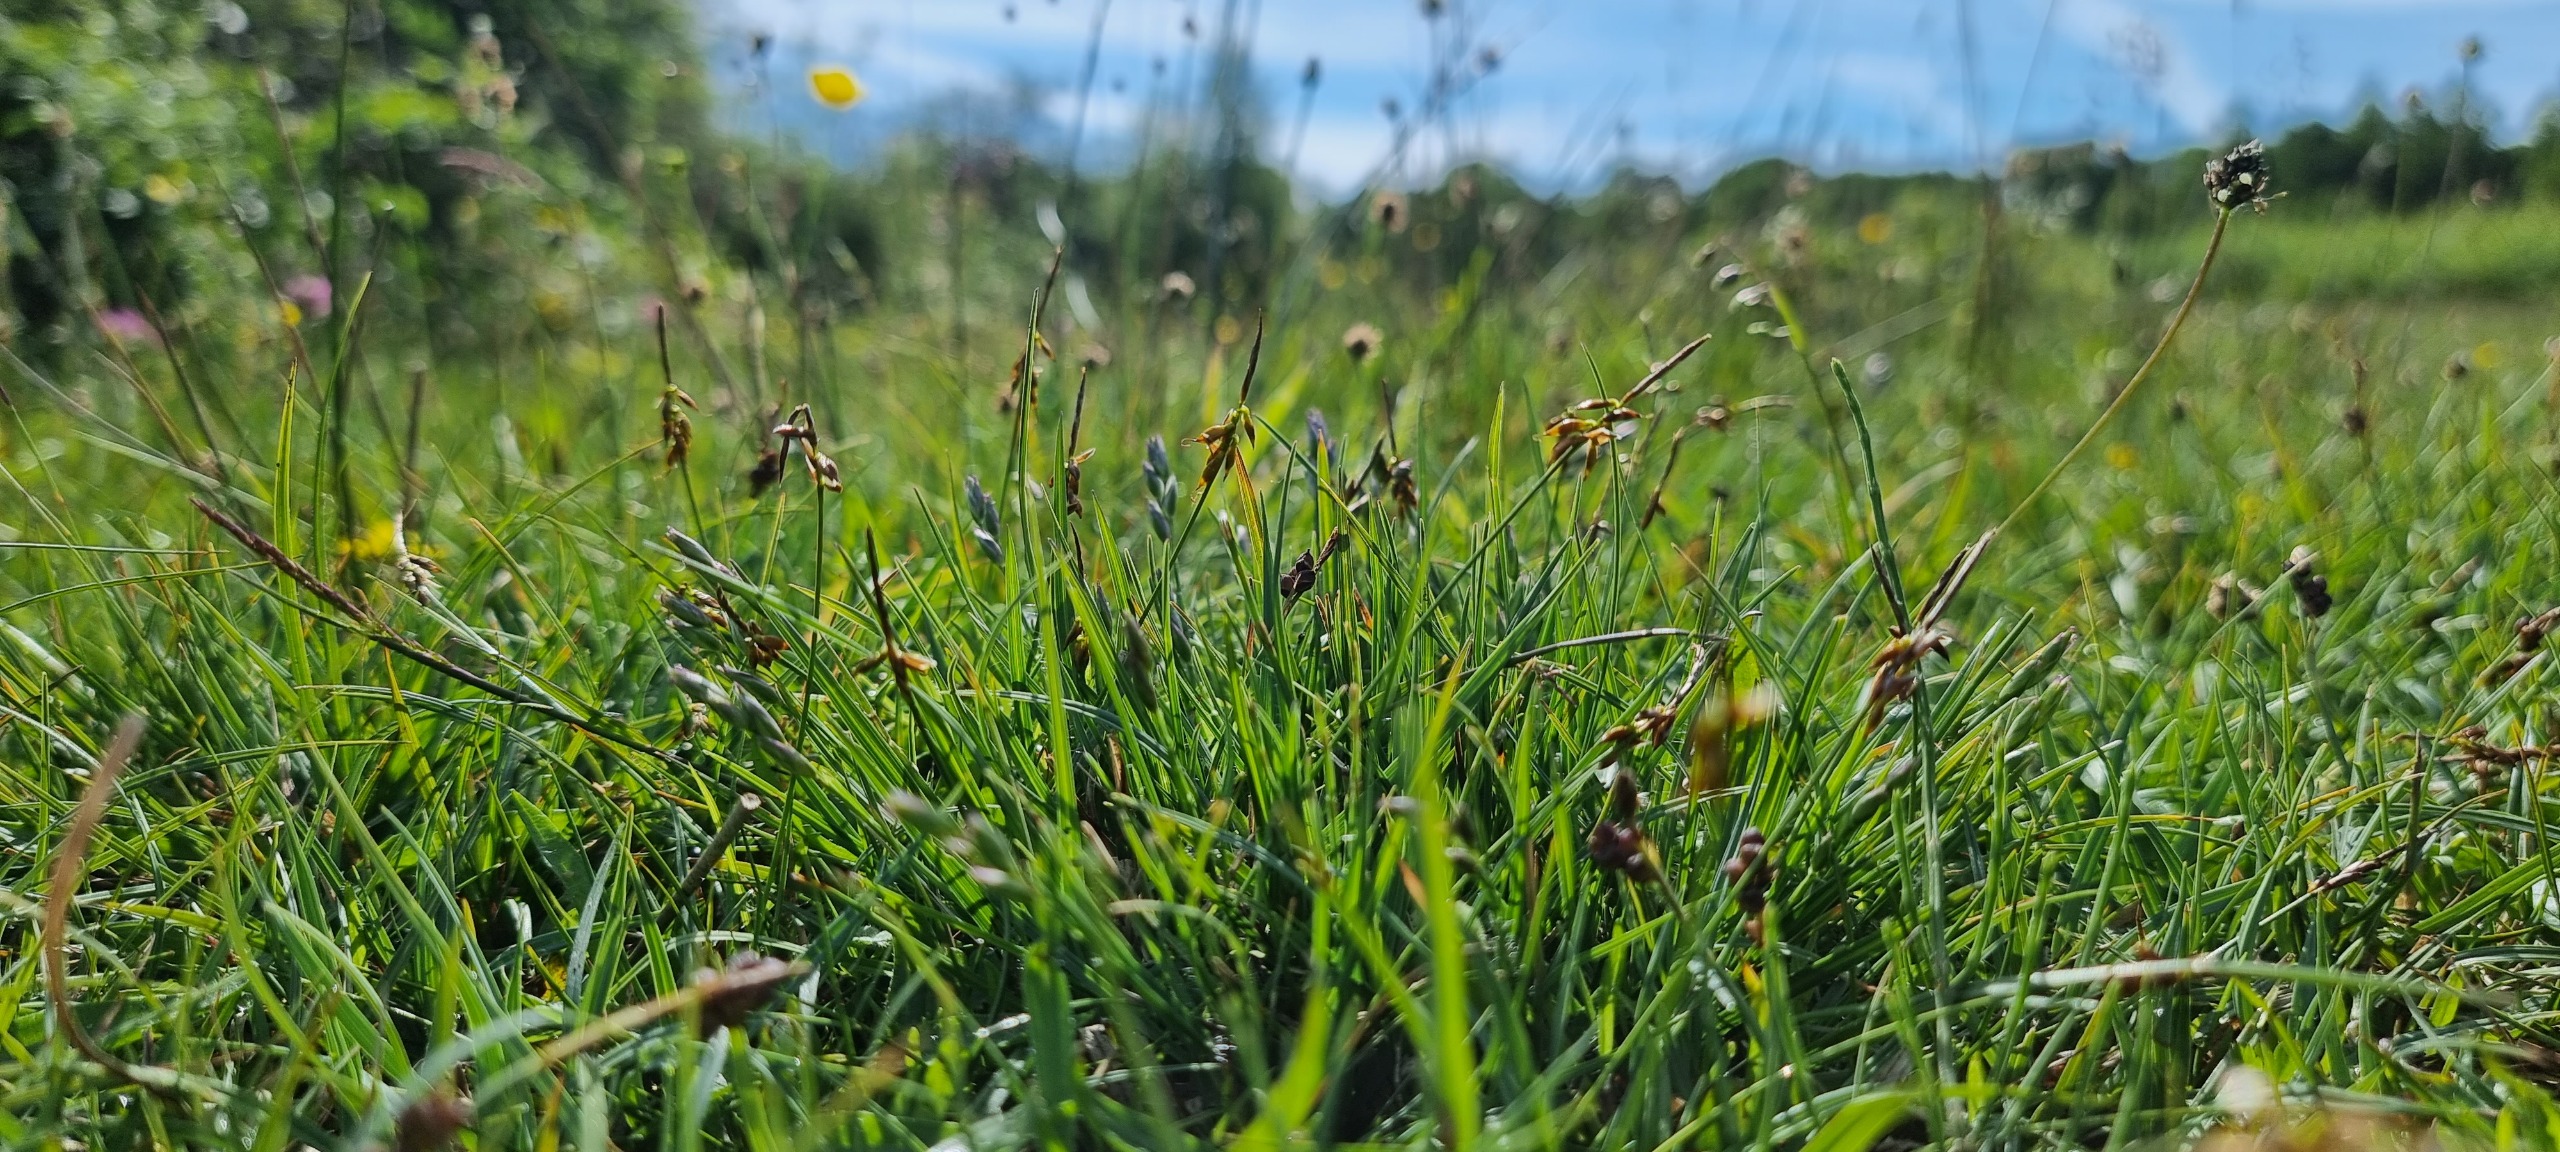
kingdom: Plantae
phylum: Tracheophyta
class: Liliopsida
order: Poales
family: Cyperaceae
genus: Carex
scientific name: Carex pulicaris
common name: Loppe-star
